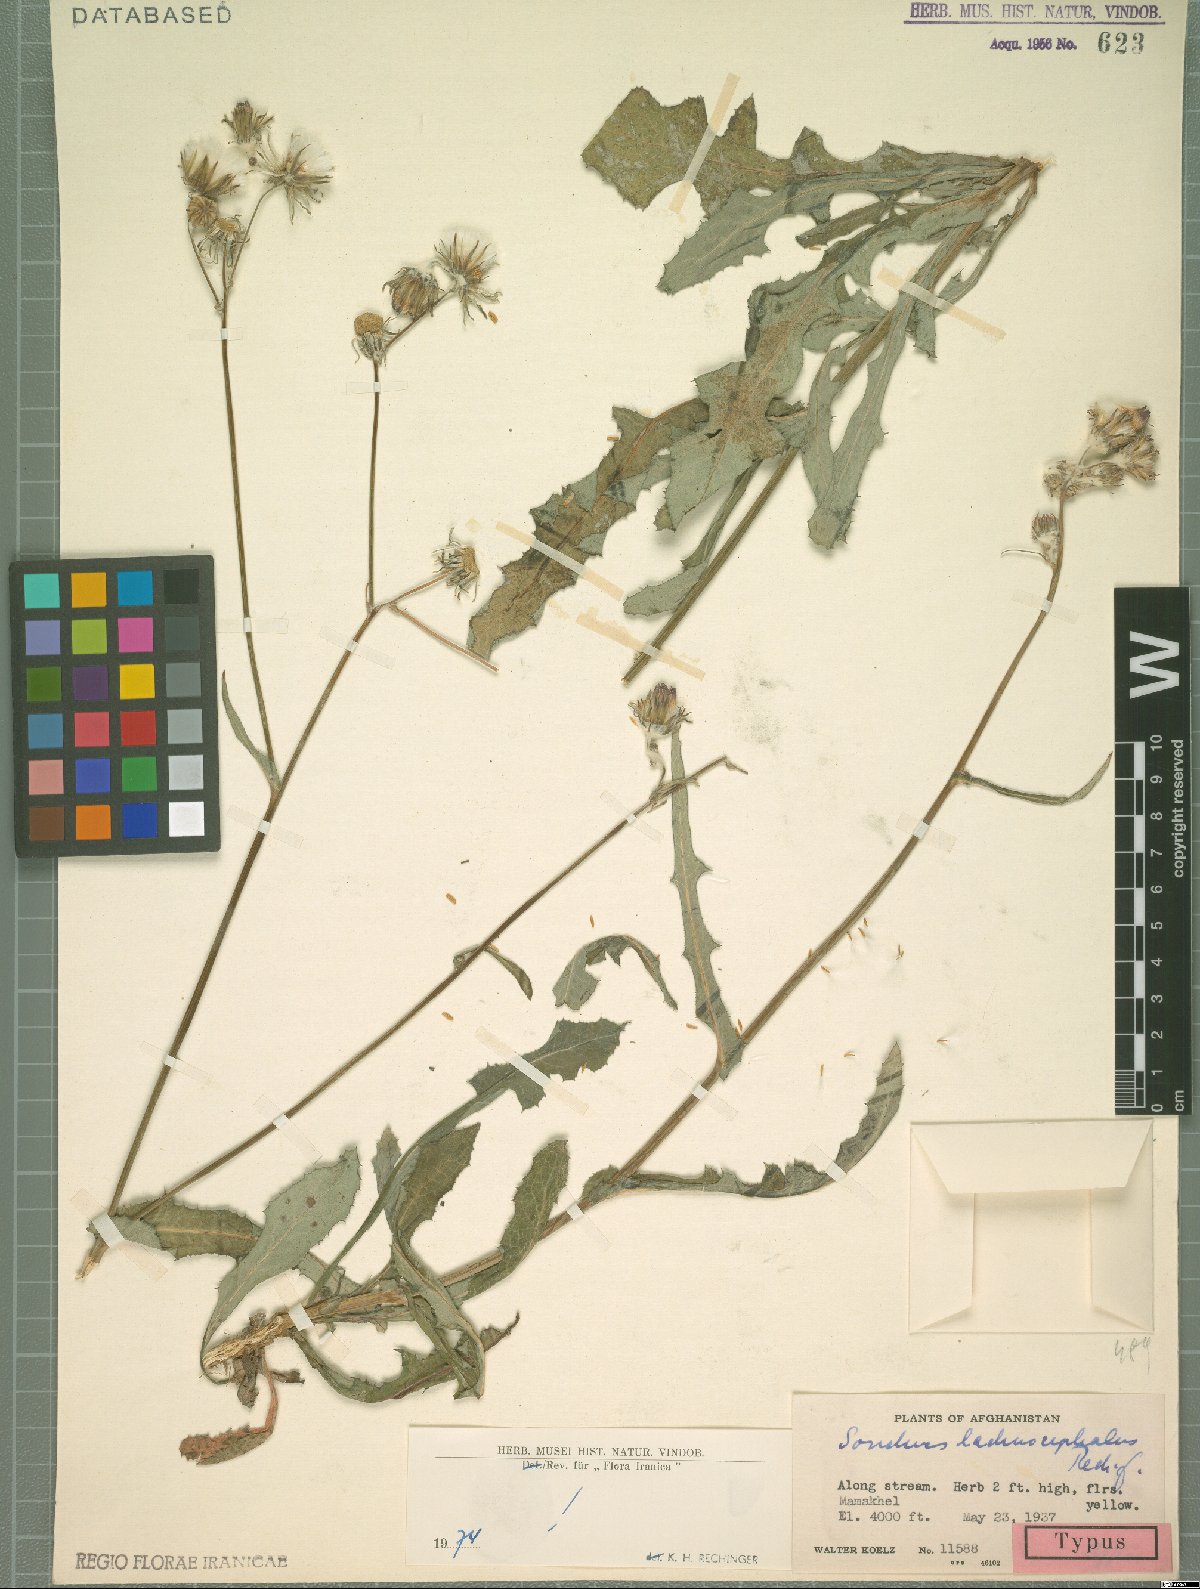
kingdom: Plantae
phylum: Tracheophyta
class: Magnoliopsida
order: Asterales
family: Asteraceae
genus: Sonchus
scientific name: Sonchus wightianus
